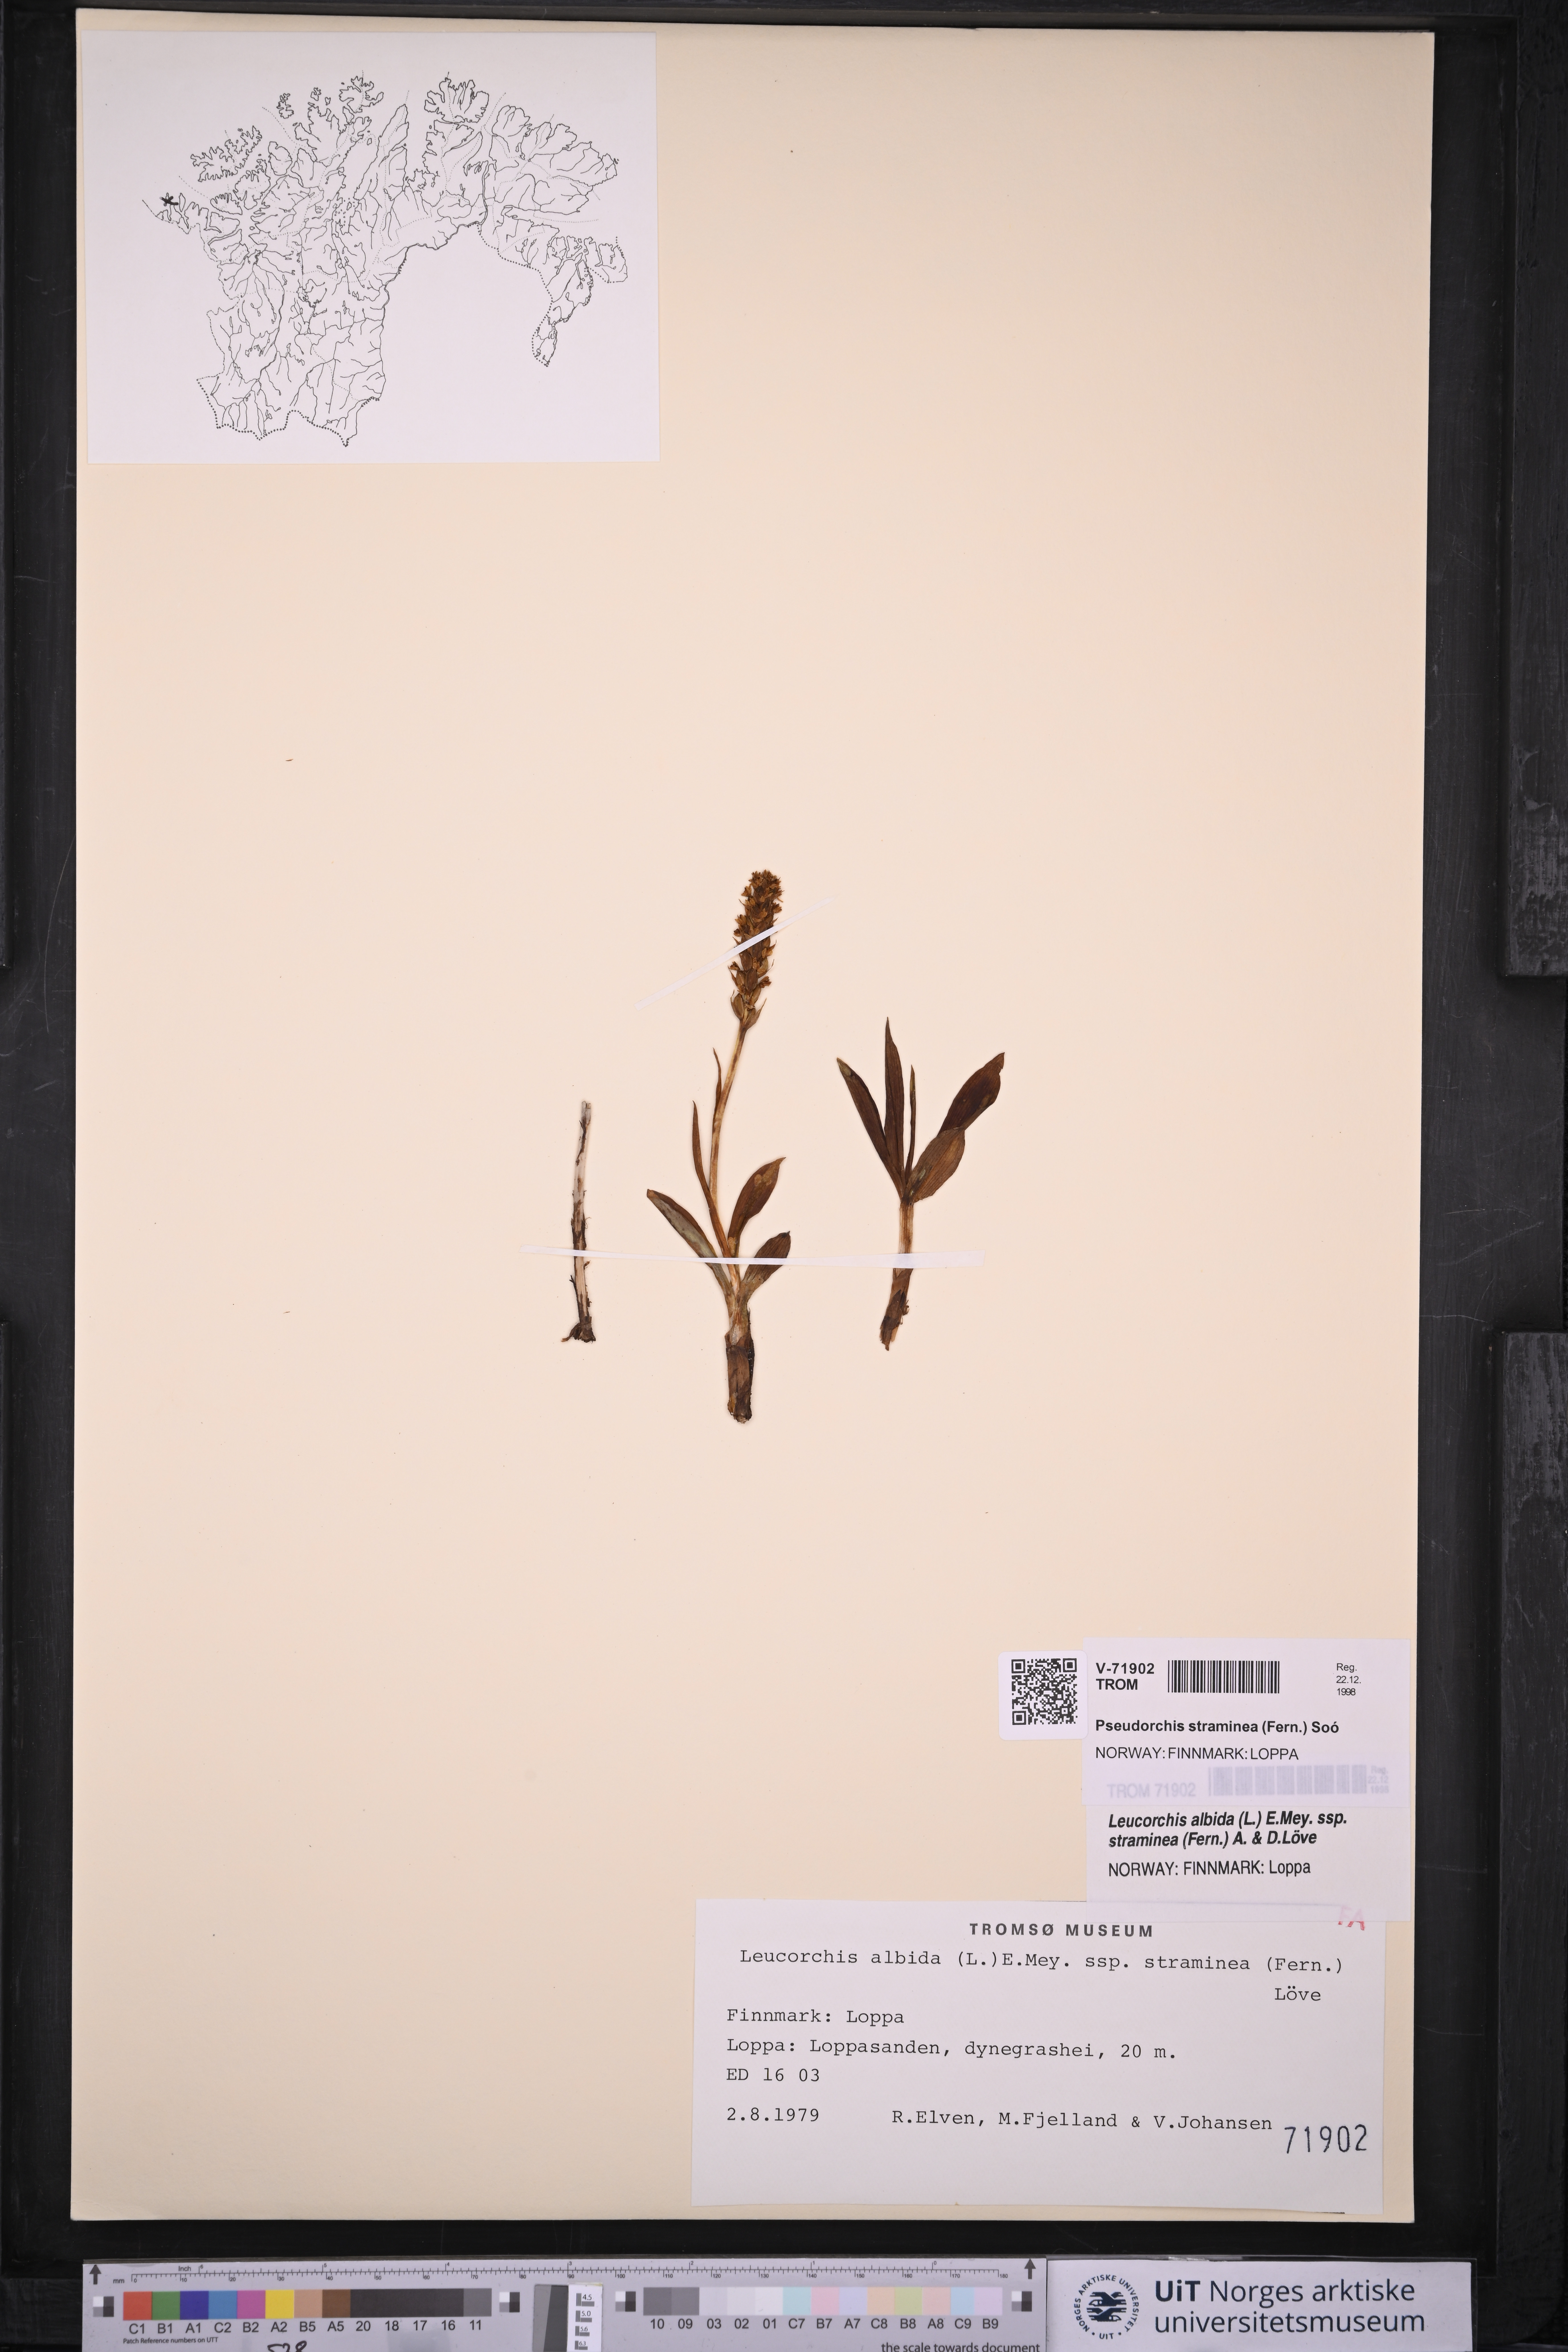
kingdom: Plantae
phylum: Tracheophyta
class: Liliopsida
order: Asparagales
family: Orchidaceae
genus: Pseudorchis
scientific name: Pseudorchis straminea
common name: Vanilla-scented bog orchid
